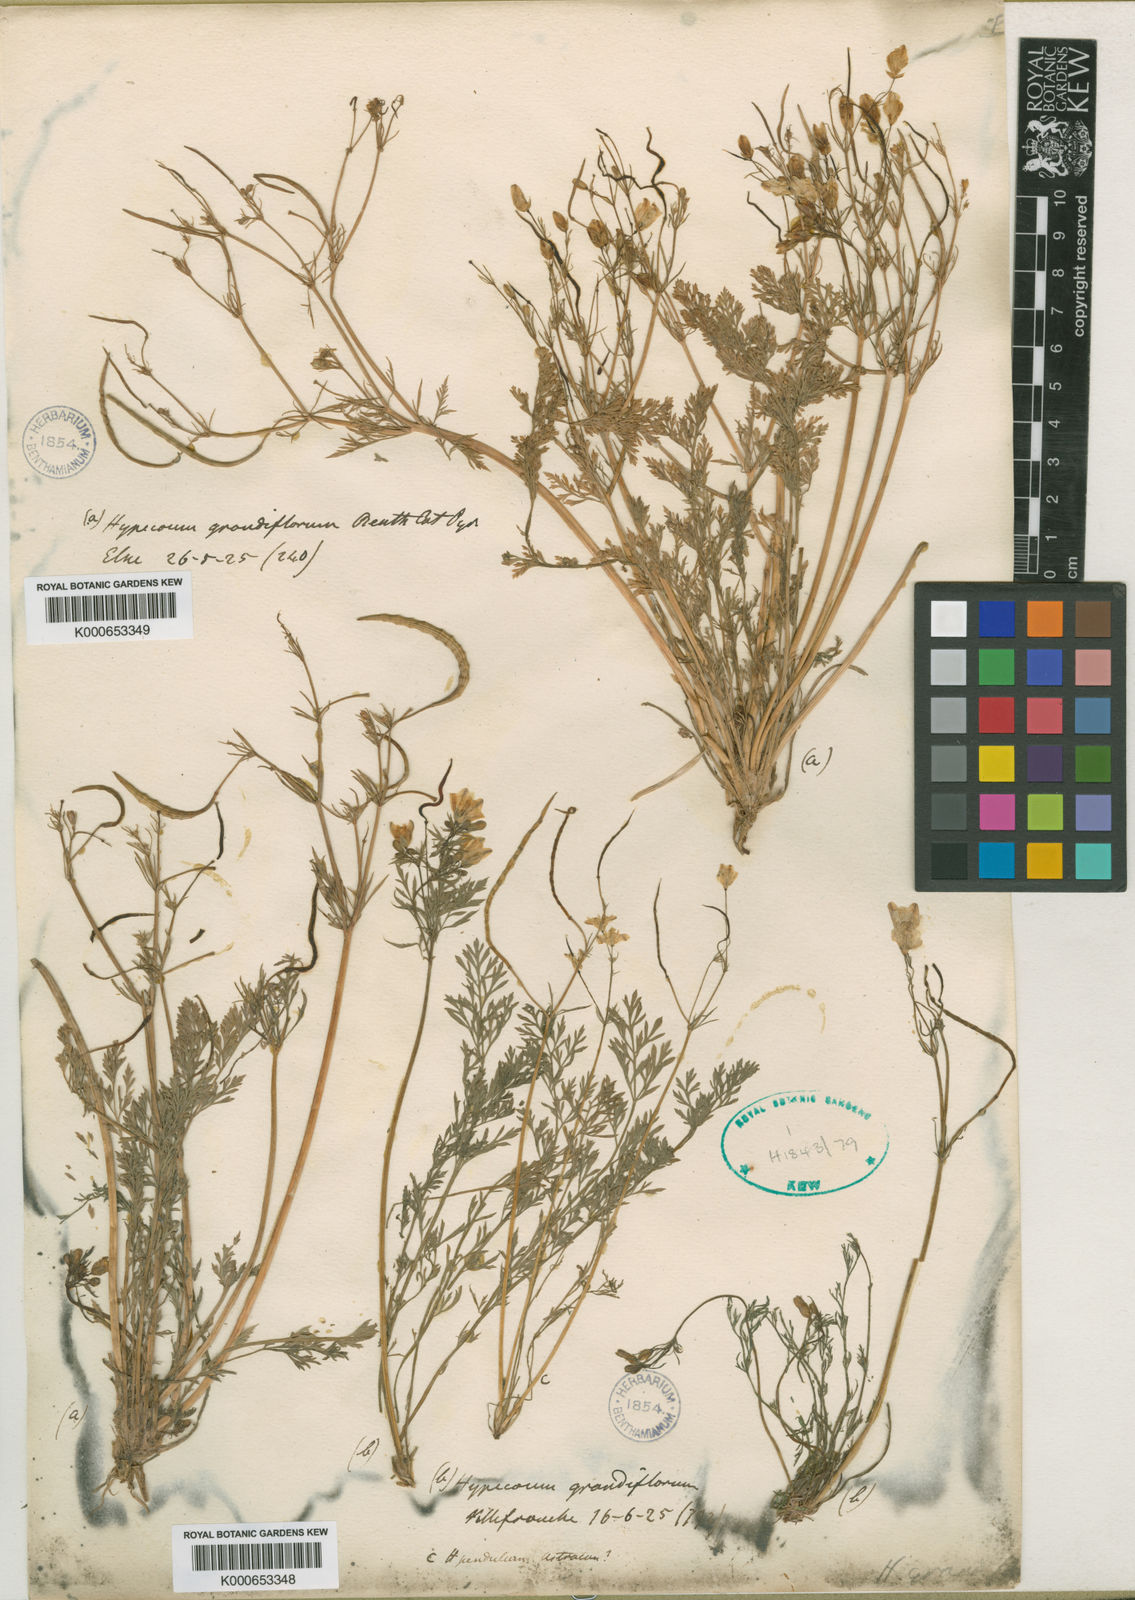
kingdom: Plantae
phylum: Tracheophyta
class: Magnoliopsida
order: Ranunculales
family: Papaveraceae
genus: Hypecoum
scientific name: Hypecoum imberbe
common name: Sicklefruit hypecoum
